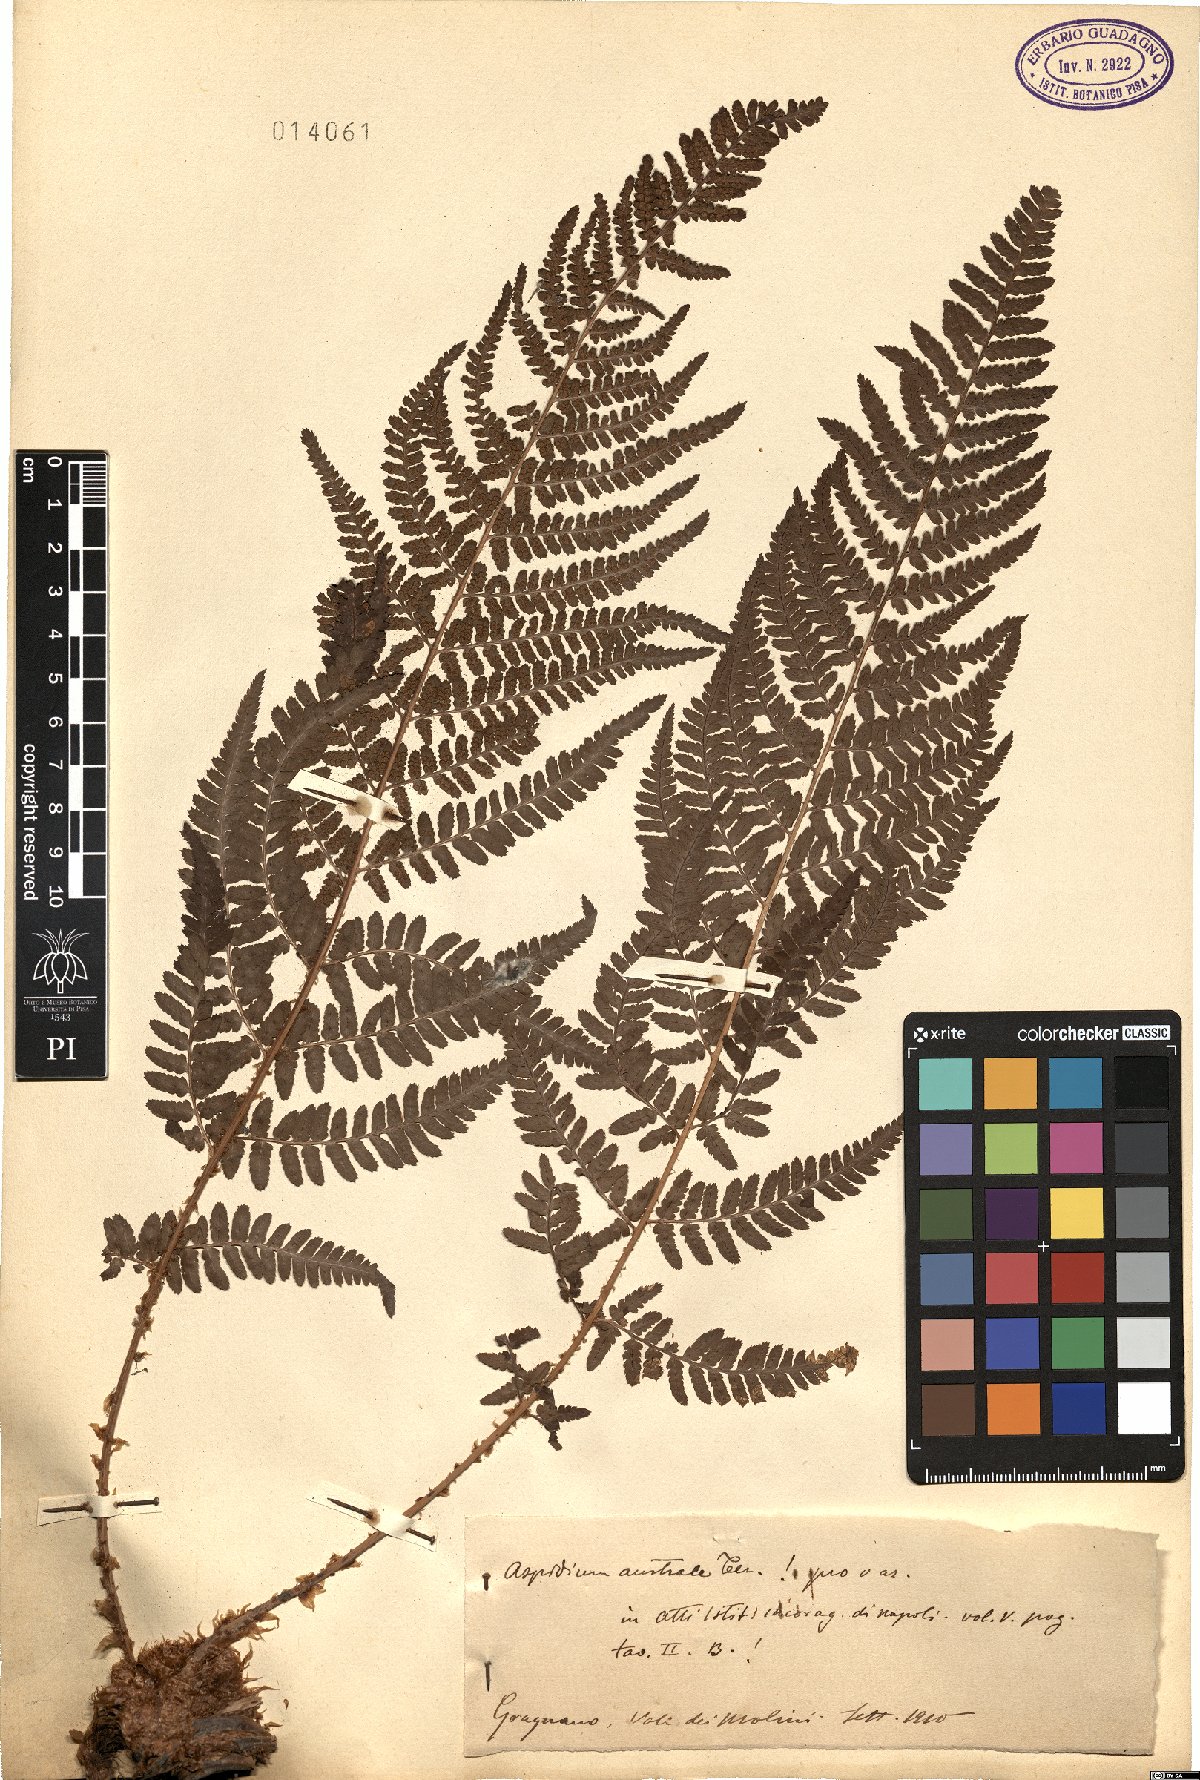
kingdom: Plantae
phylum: Tracheophyta
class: Polypodiopsida
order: Polypodiales
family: Dryopteridaceae
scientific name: Dryopteridaceae
